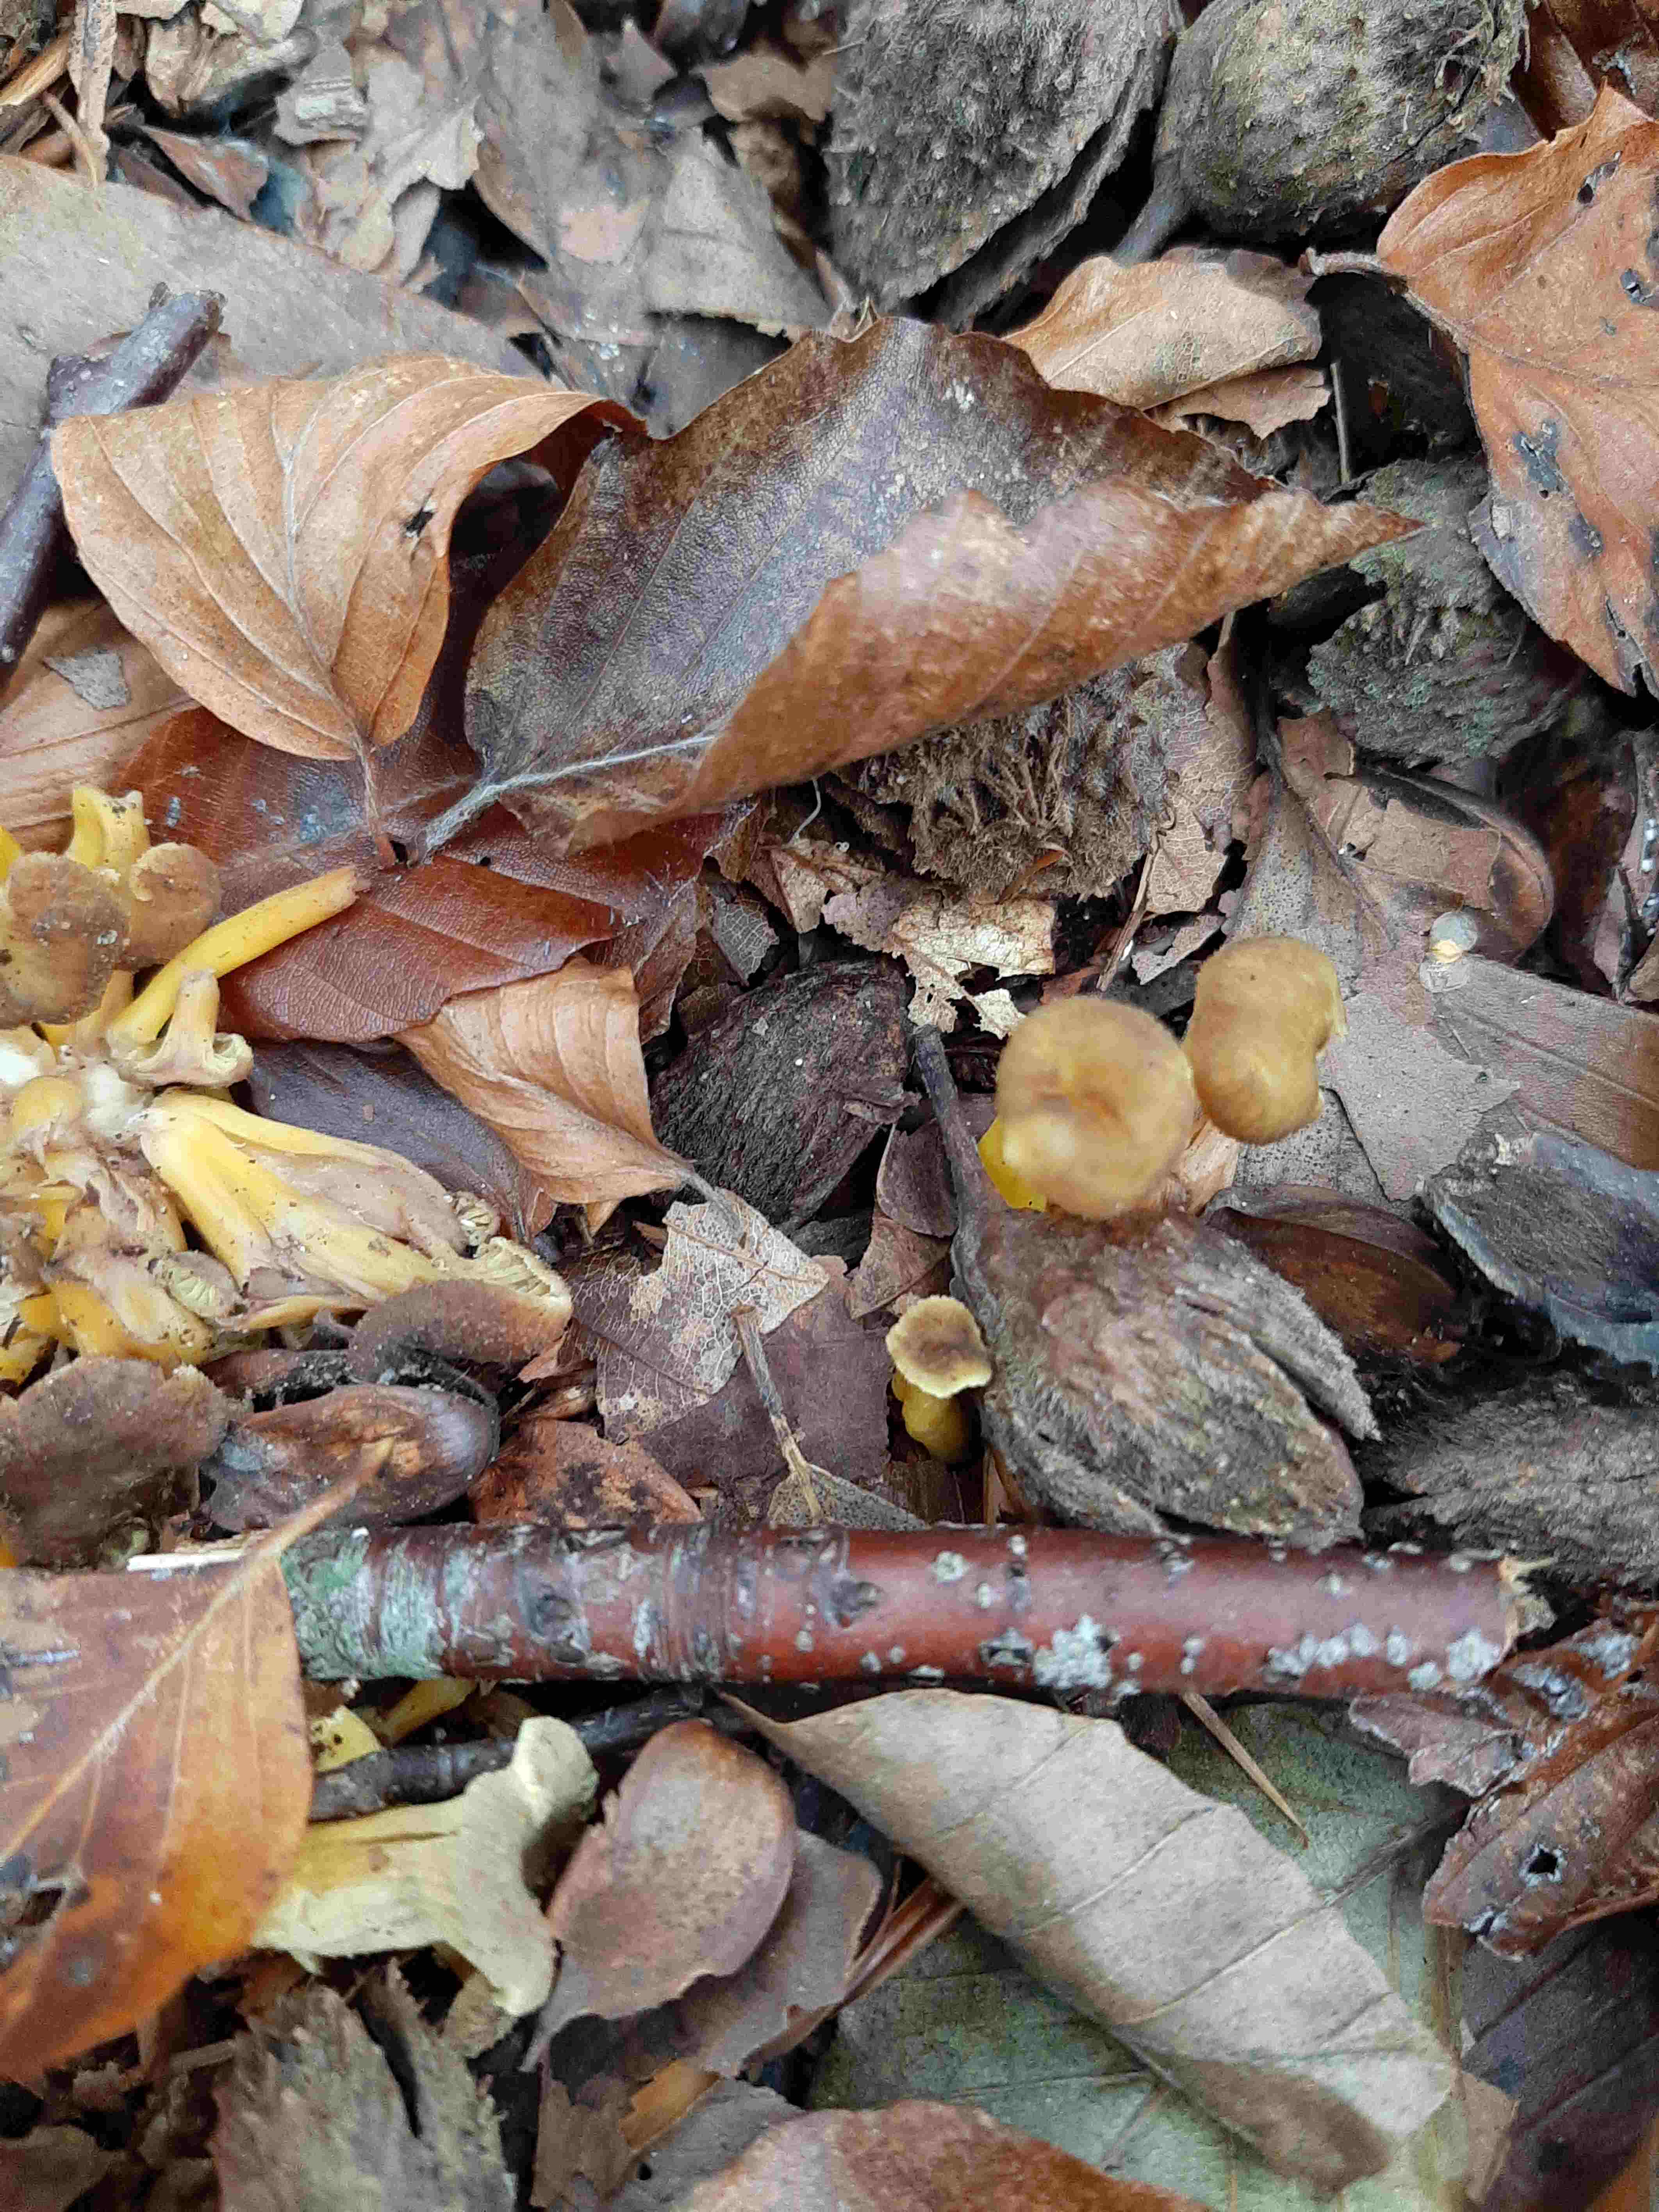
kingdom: Fungi
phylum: Basidiomycota
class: Agaricomycetes
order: Cantharellales
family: Hydnaceae
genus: Craterellus
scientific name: Craterellus tubaeformis
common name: tragt-kantarel
